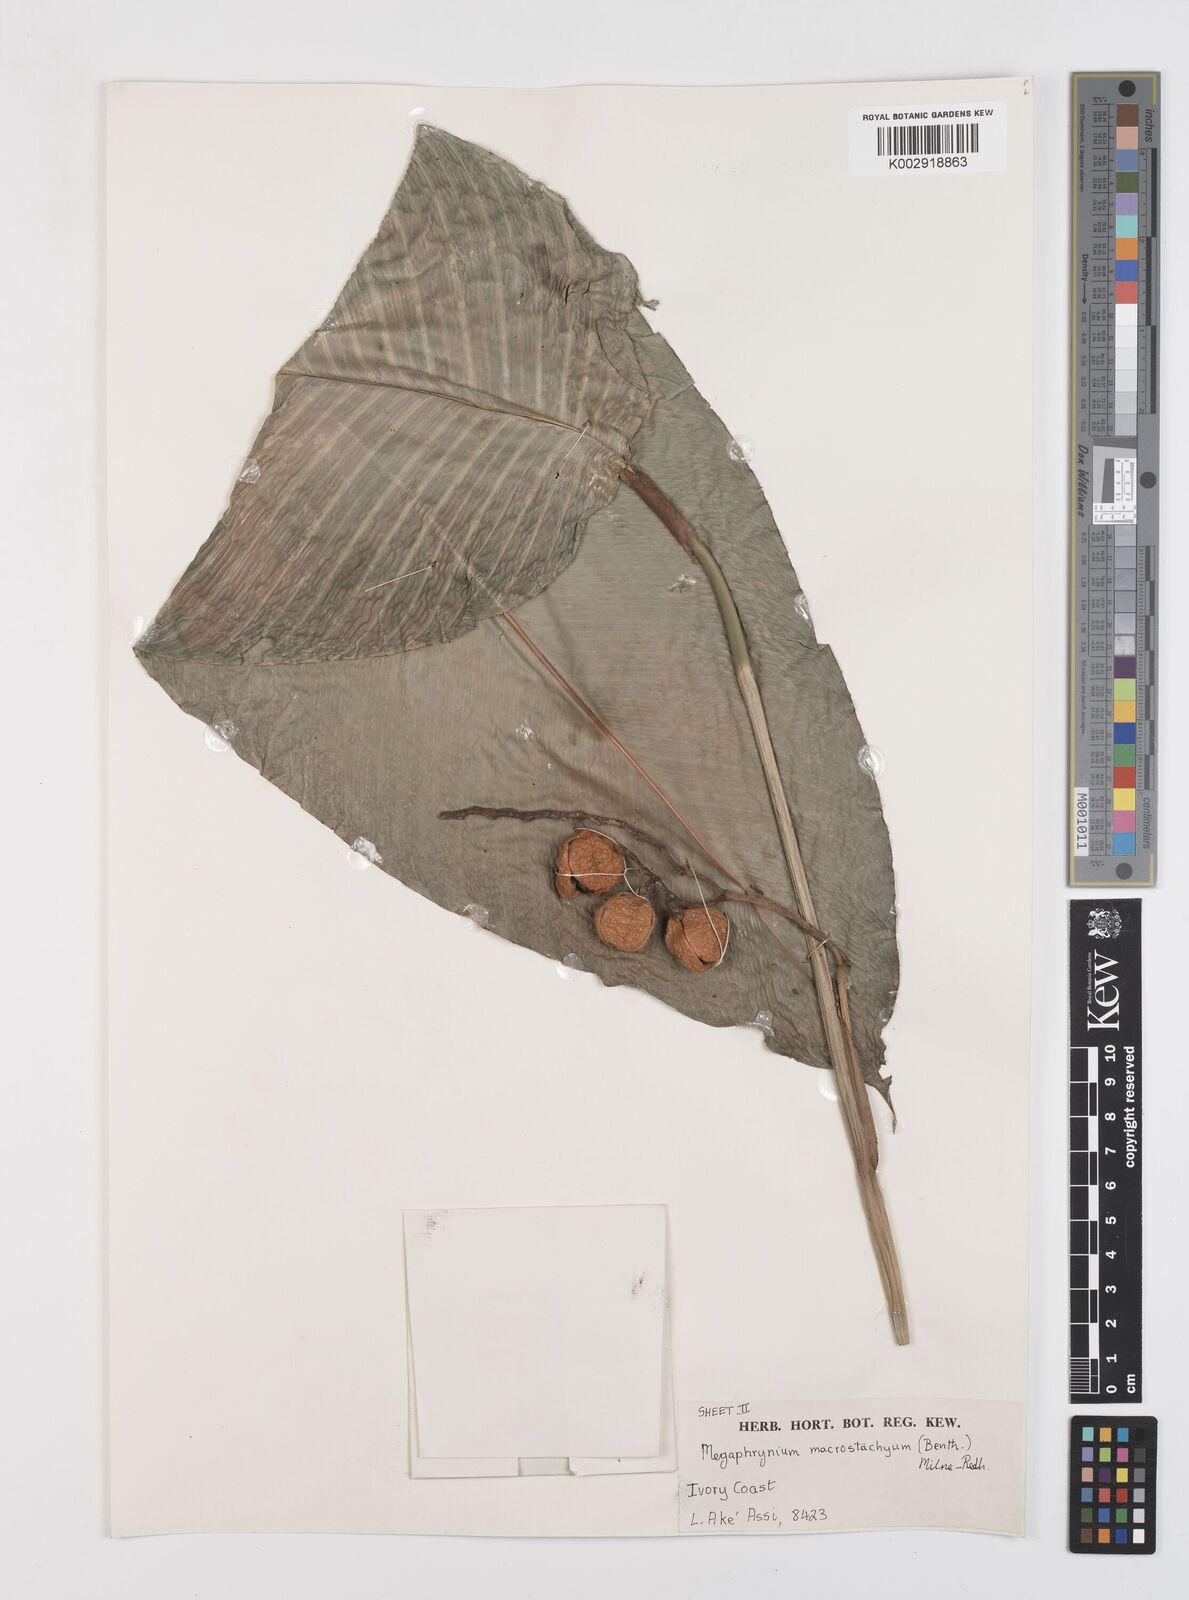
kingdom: Plantae
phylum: Tracheophyta
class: Liliopsida
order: Zingiberales
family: Marantaceae
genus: Megaphrynium
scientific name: Megaphrynium macrostachyum
